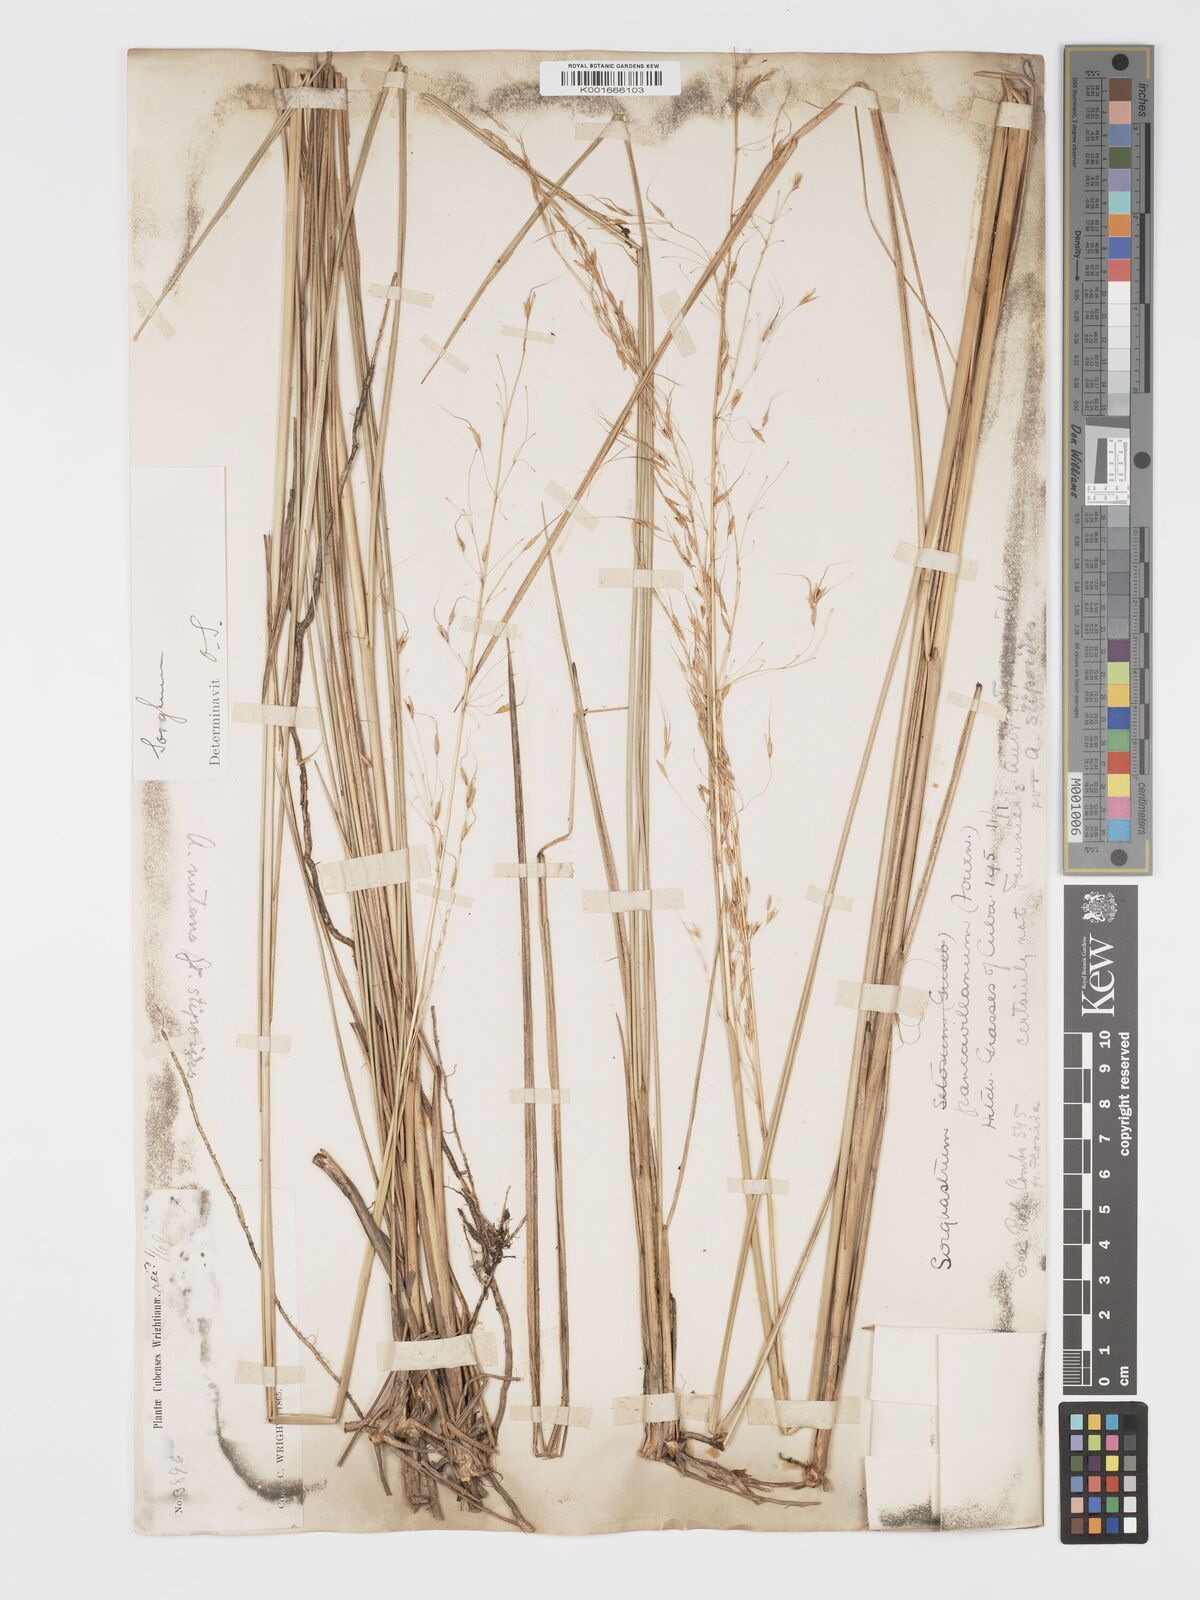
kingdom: Plantae
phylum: Tracheophyta
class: Liliopsida
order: Poales
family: Poaceae
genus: Sorghastrum
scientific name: Sorghastrum stipoides
